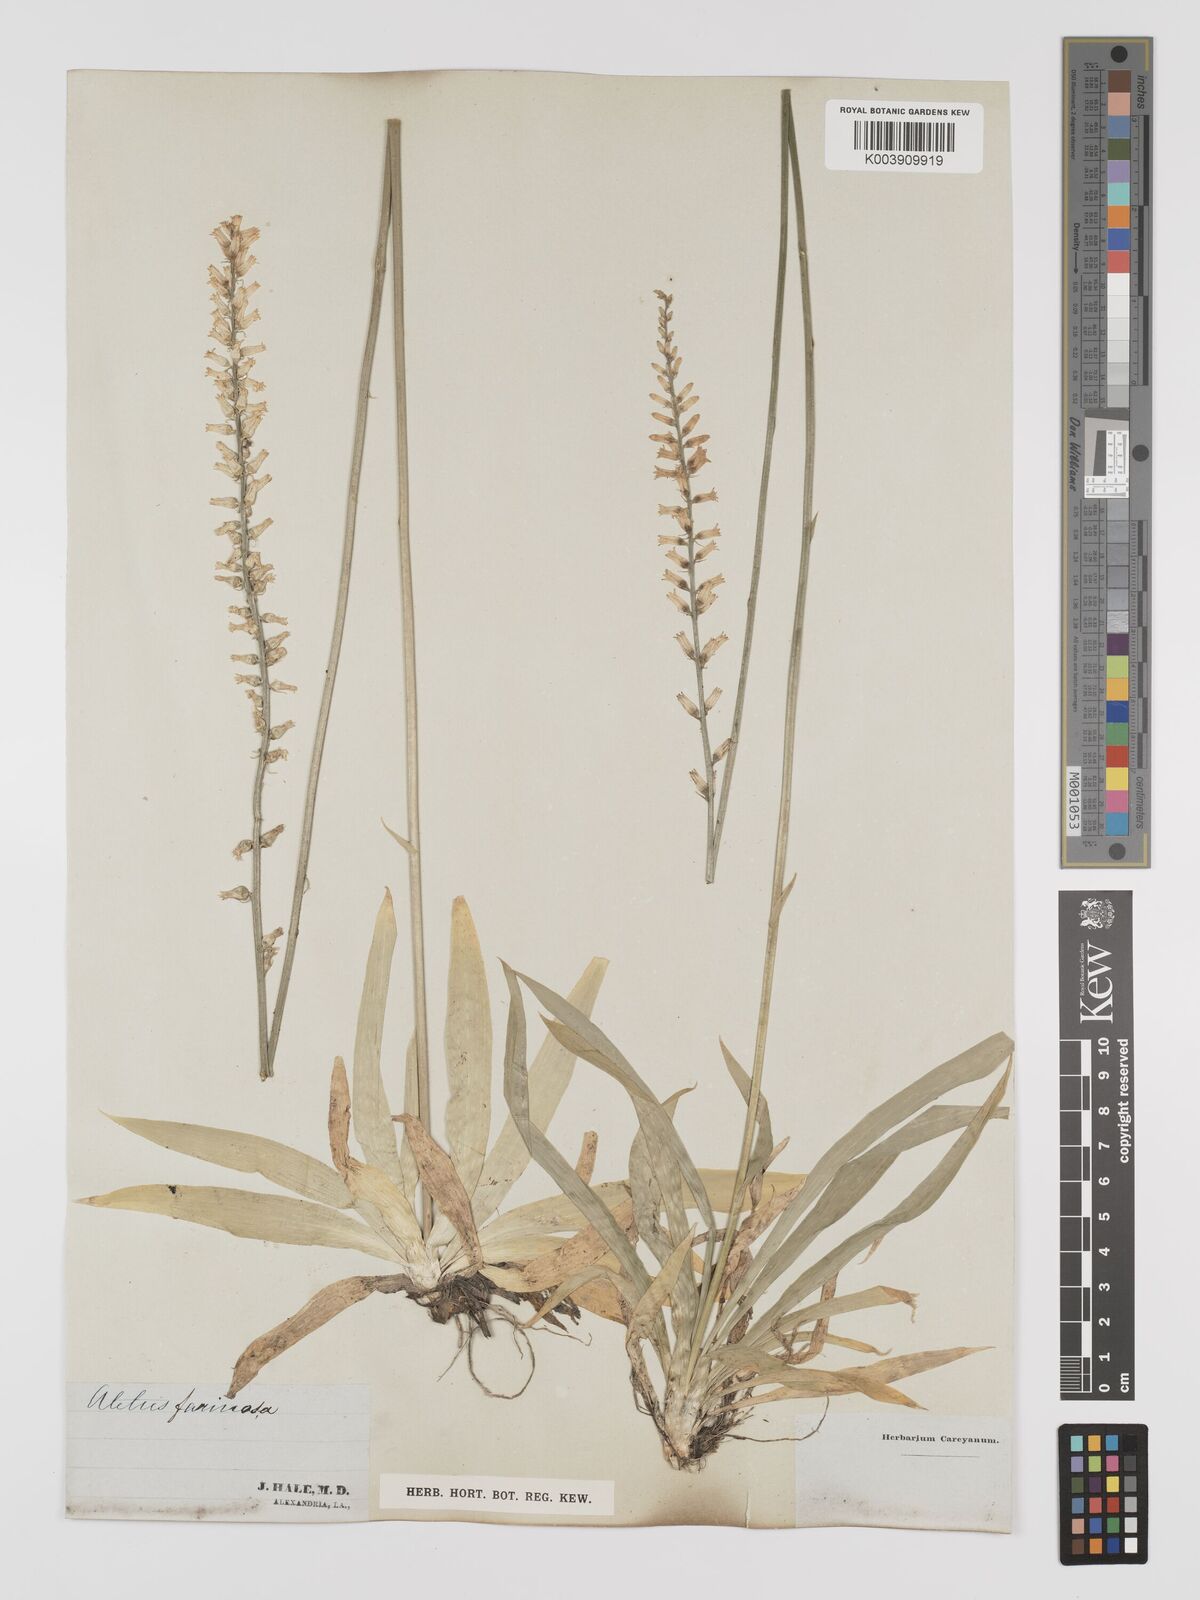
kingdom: Plantae
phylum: Tracheophyta
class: Liliopsida
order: Dioscoreales
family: Nartheciaceae
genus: Aletris
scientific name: Aletris farinosa
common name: Colicroot
